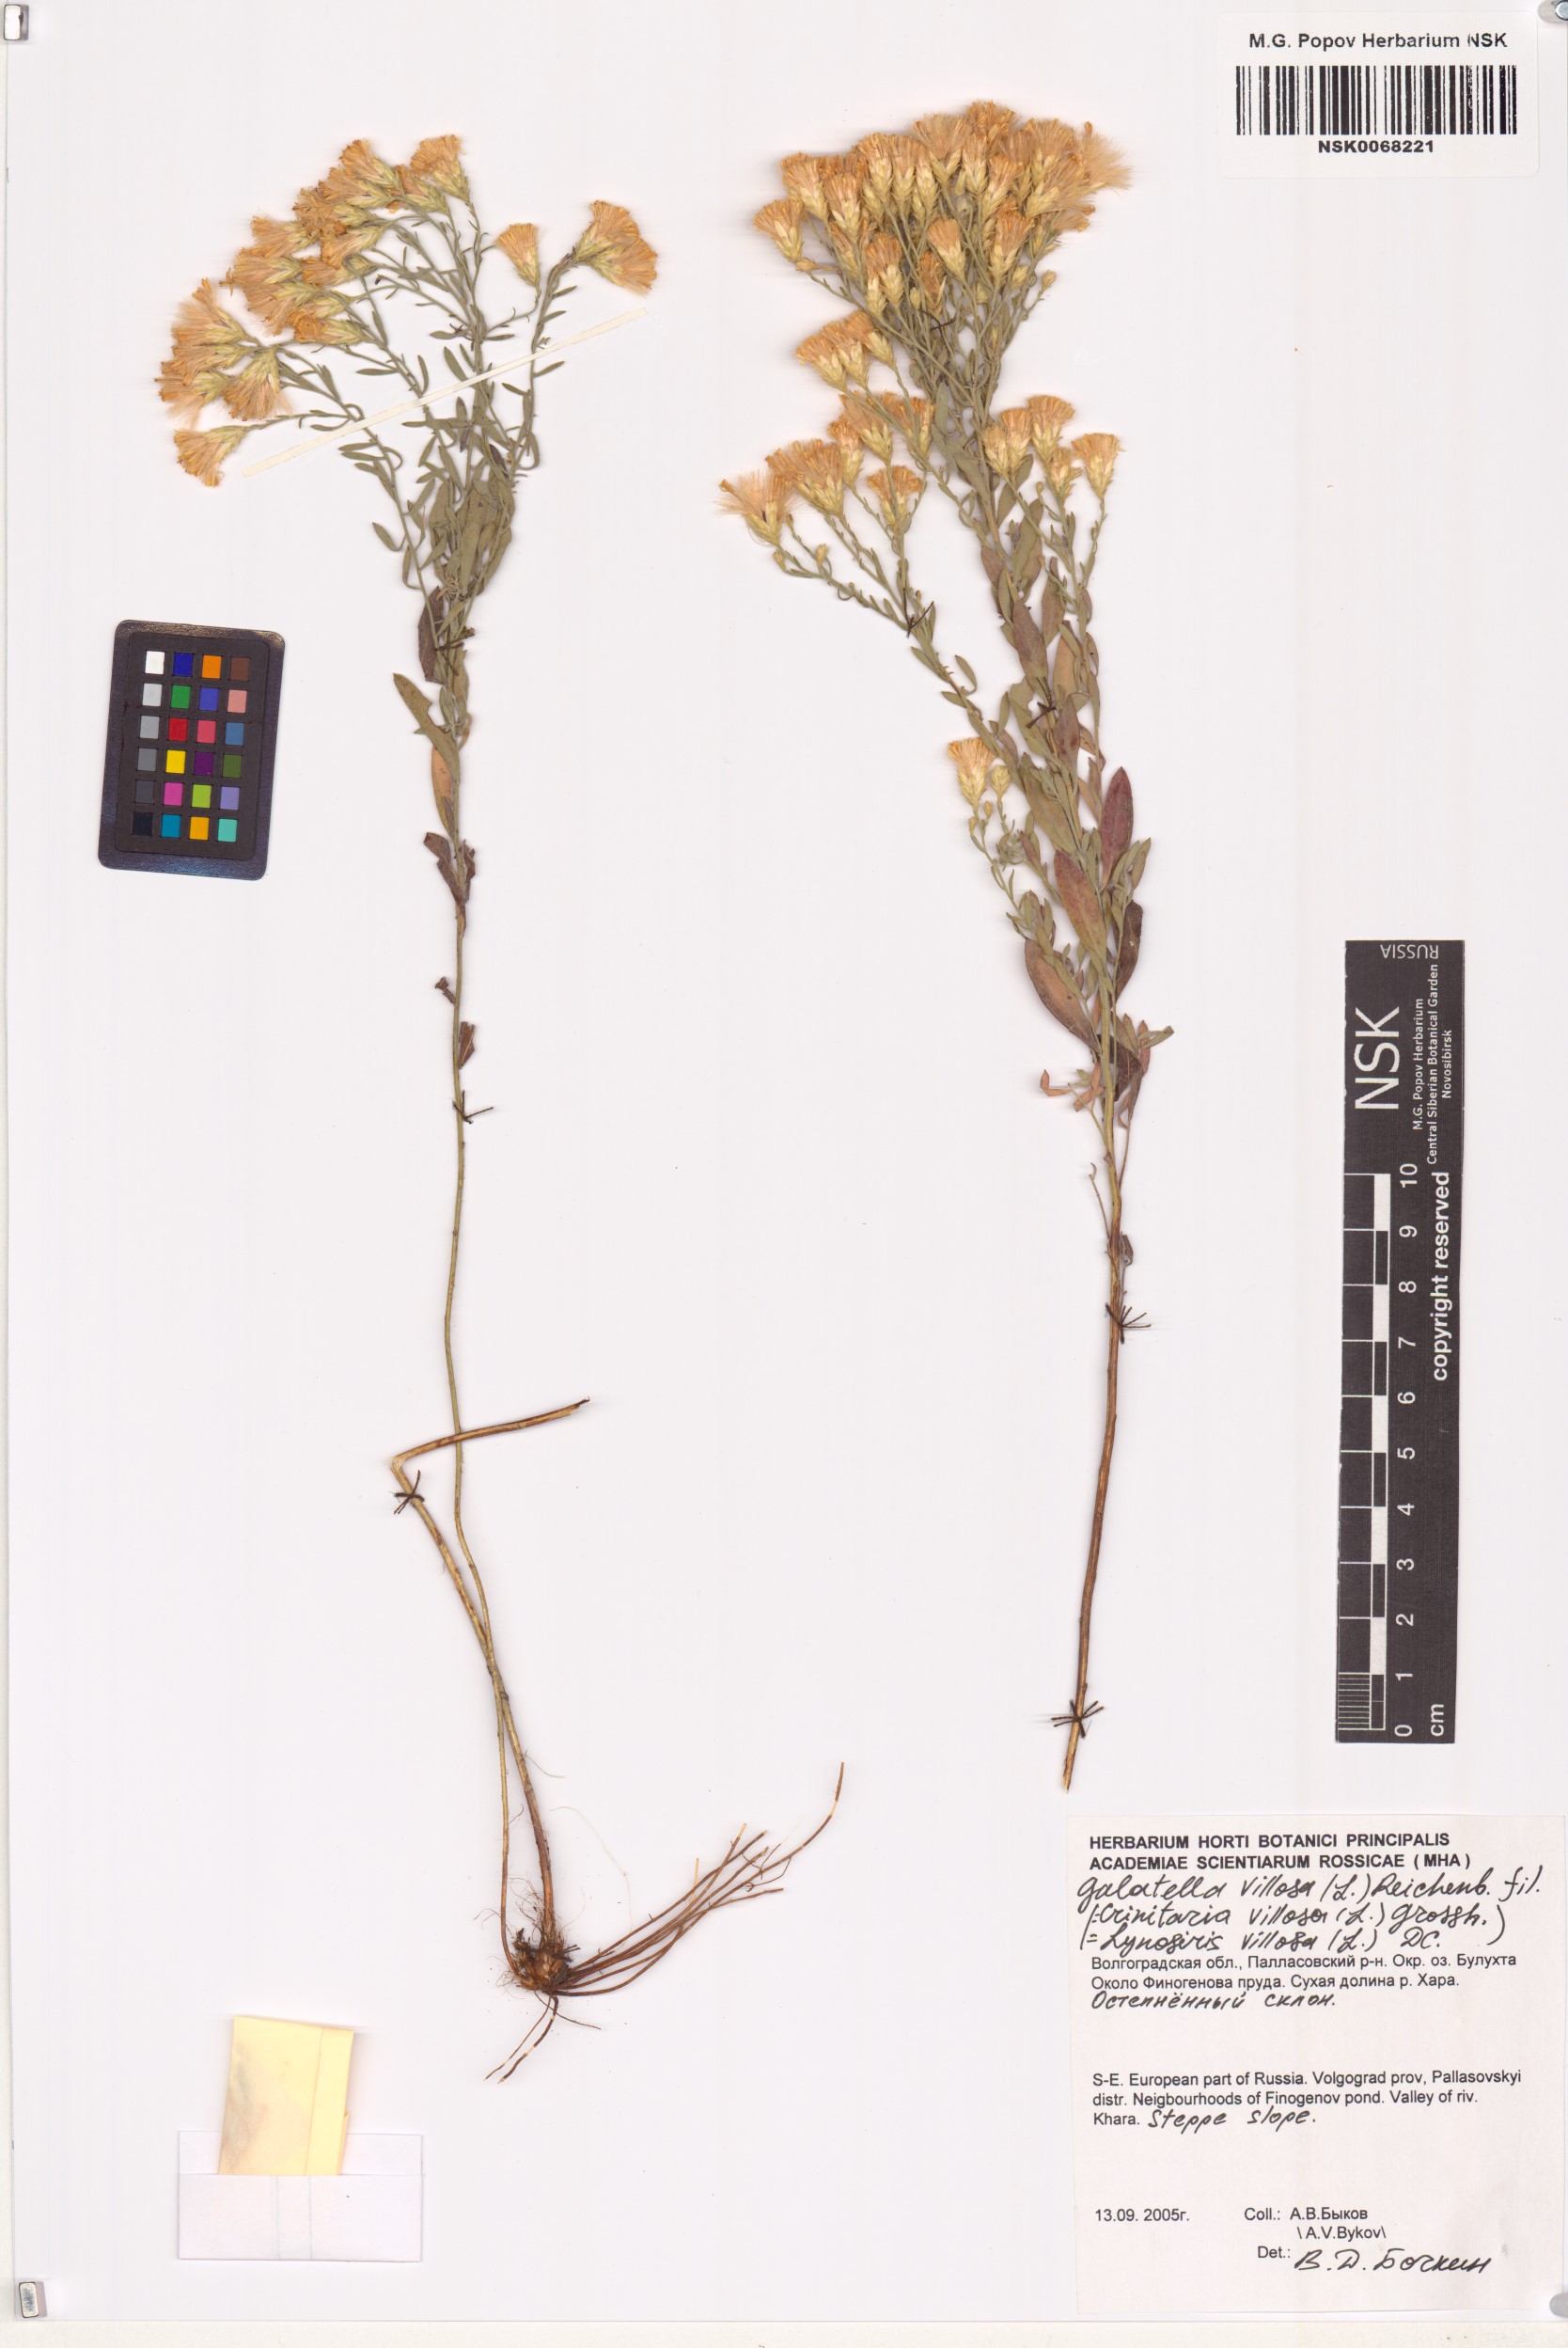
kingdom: Plantae
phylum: Tracheophyta
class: Magnoliopsida
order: Asterales
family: Asteraceae
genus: Galatella
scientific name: Galatella villosa
